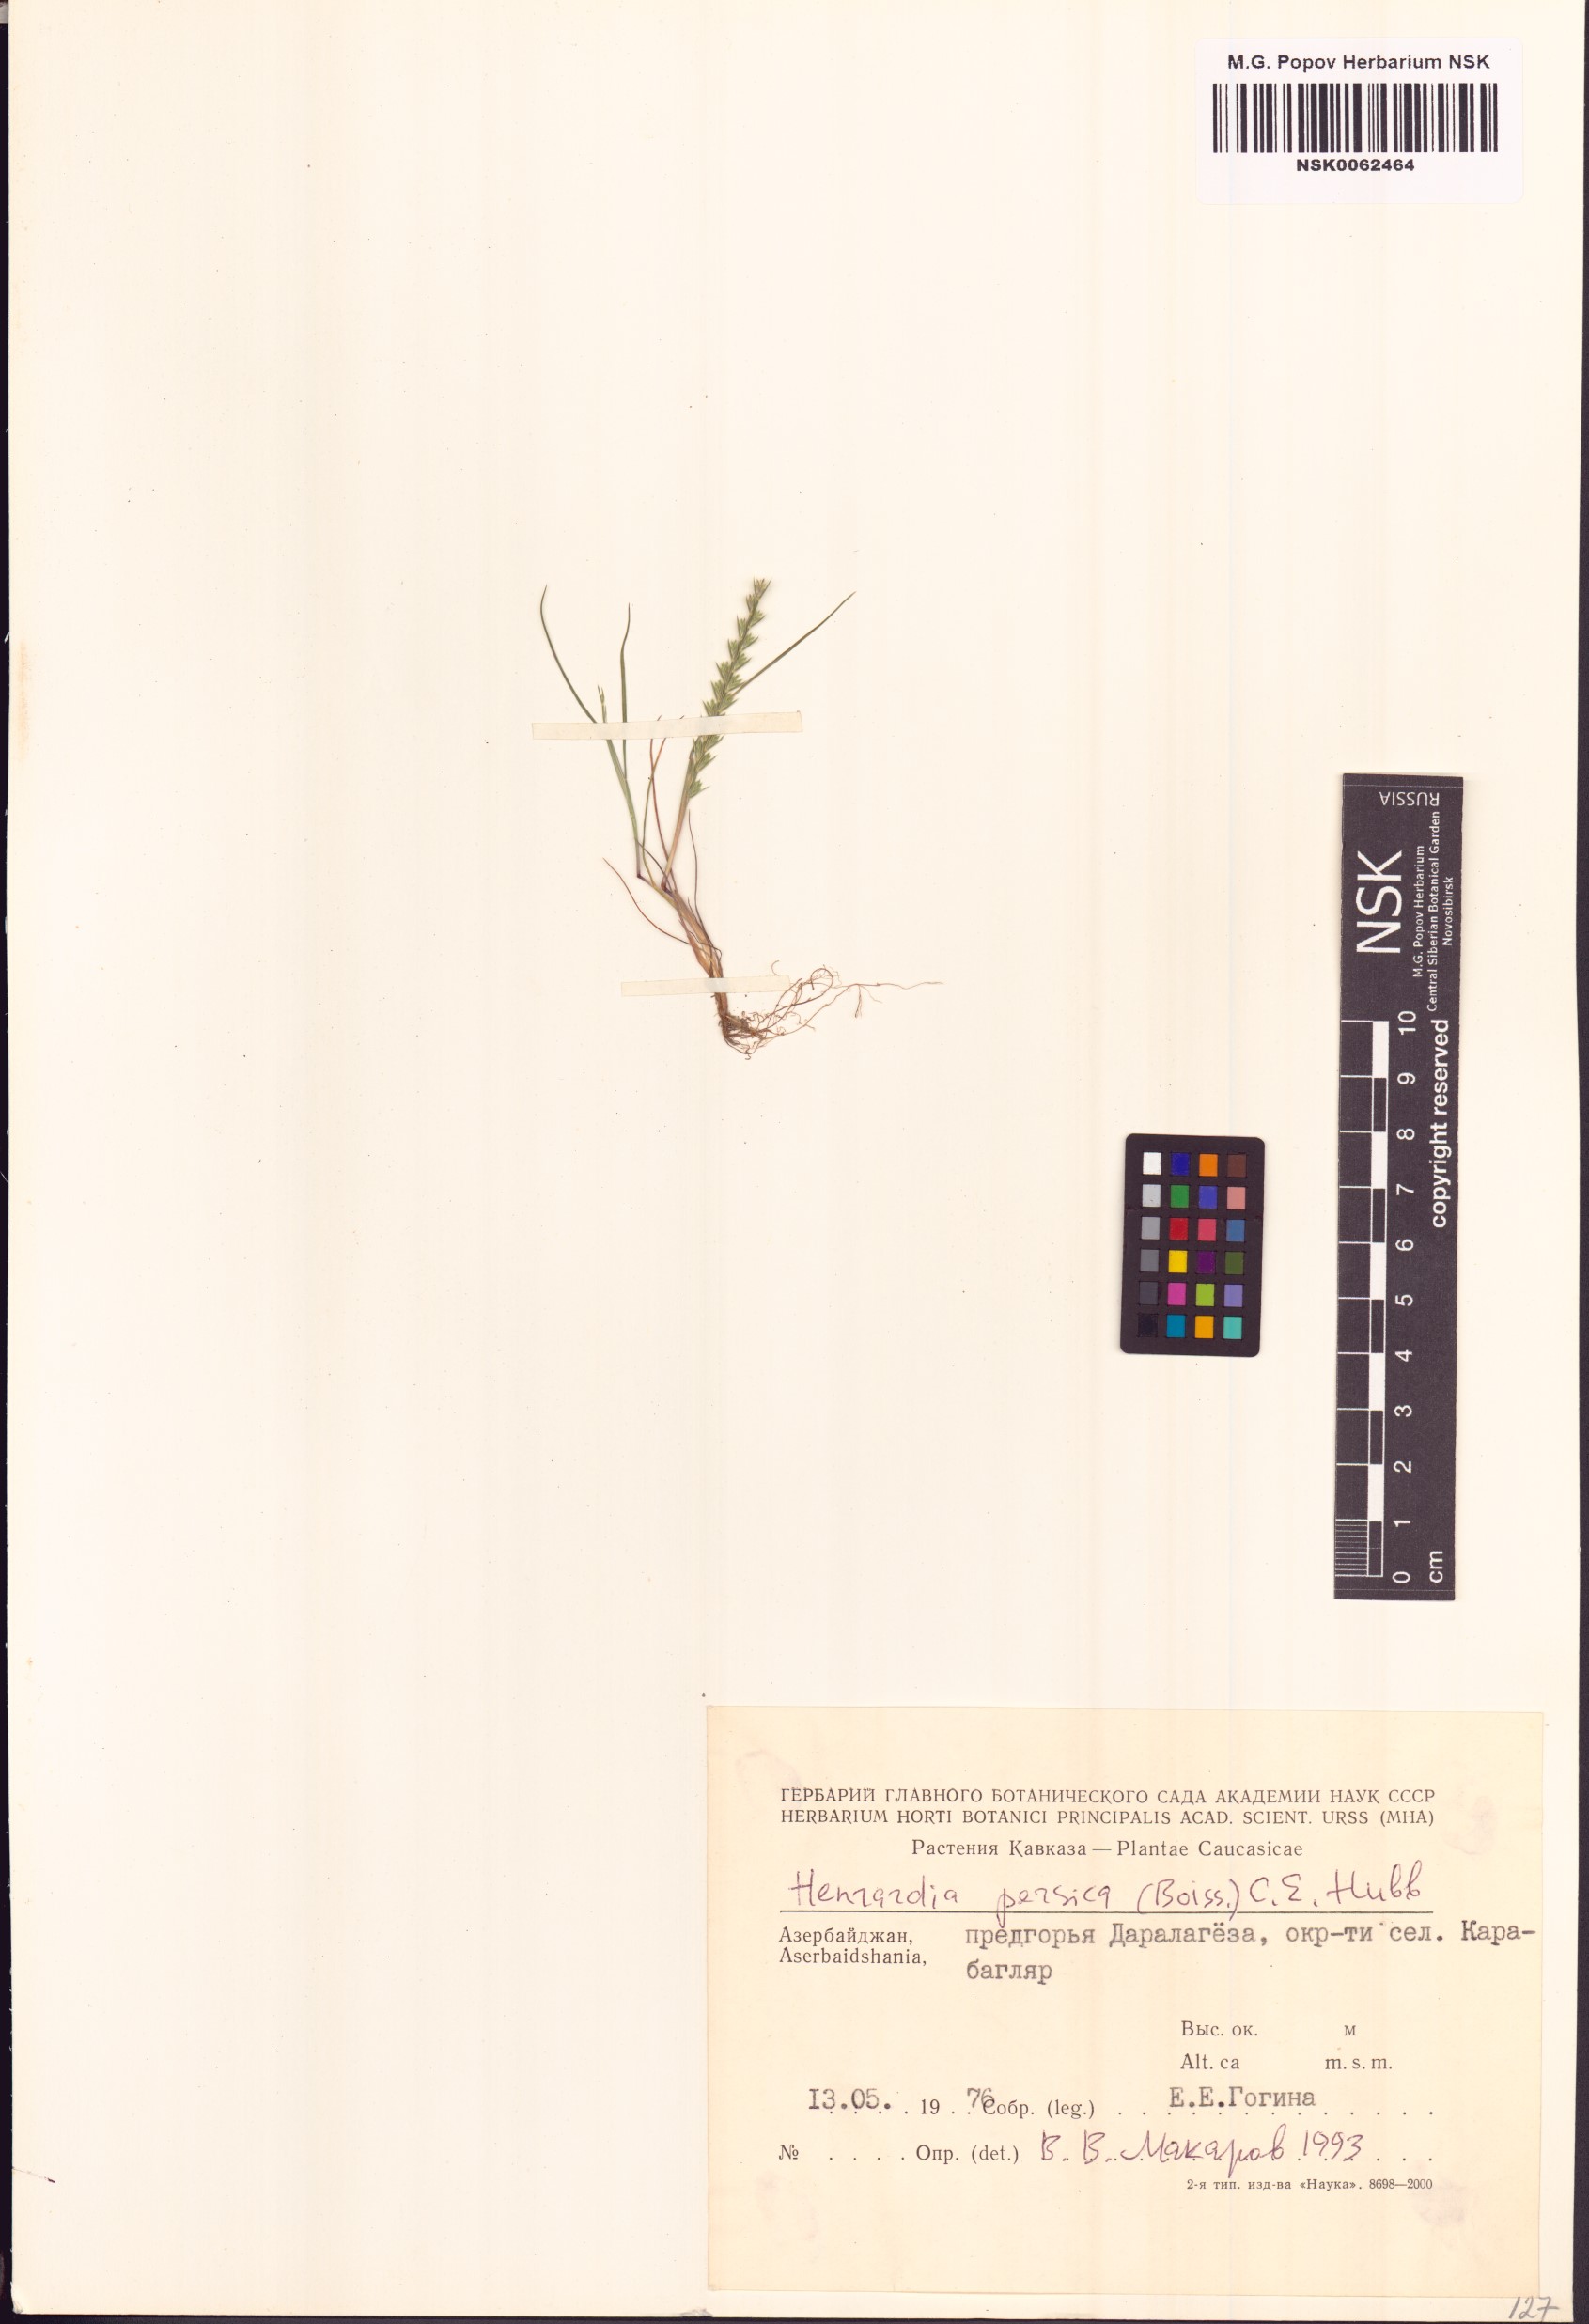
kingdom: Plantae
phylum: Tracheophyta
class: Liliopsida
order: Poales
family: Poaceae
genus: Henrardia
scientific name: Henrardia persica
